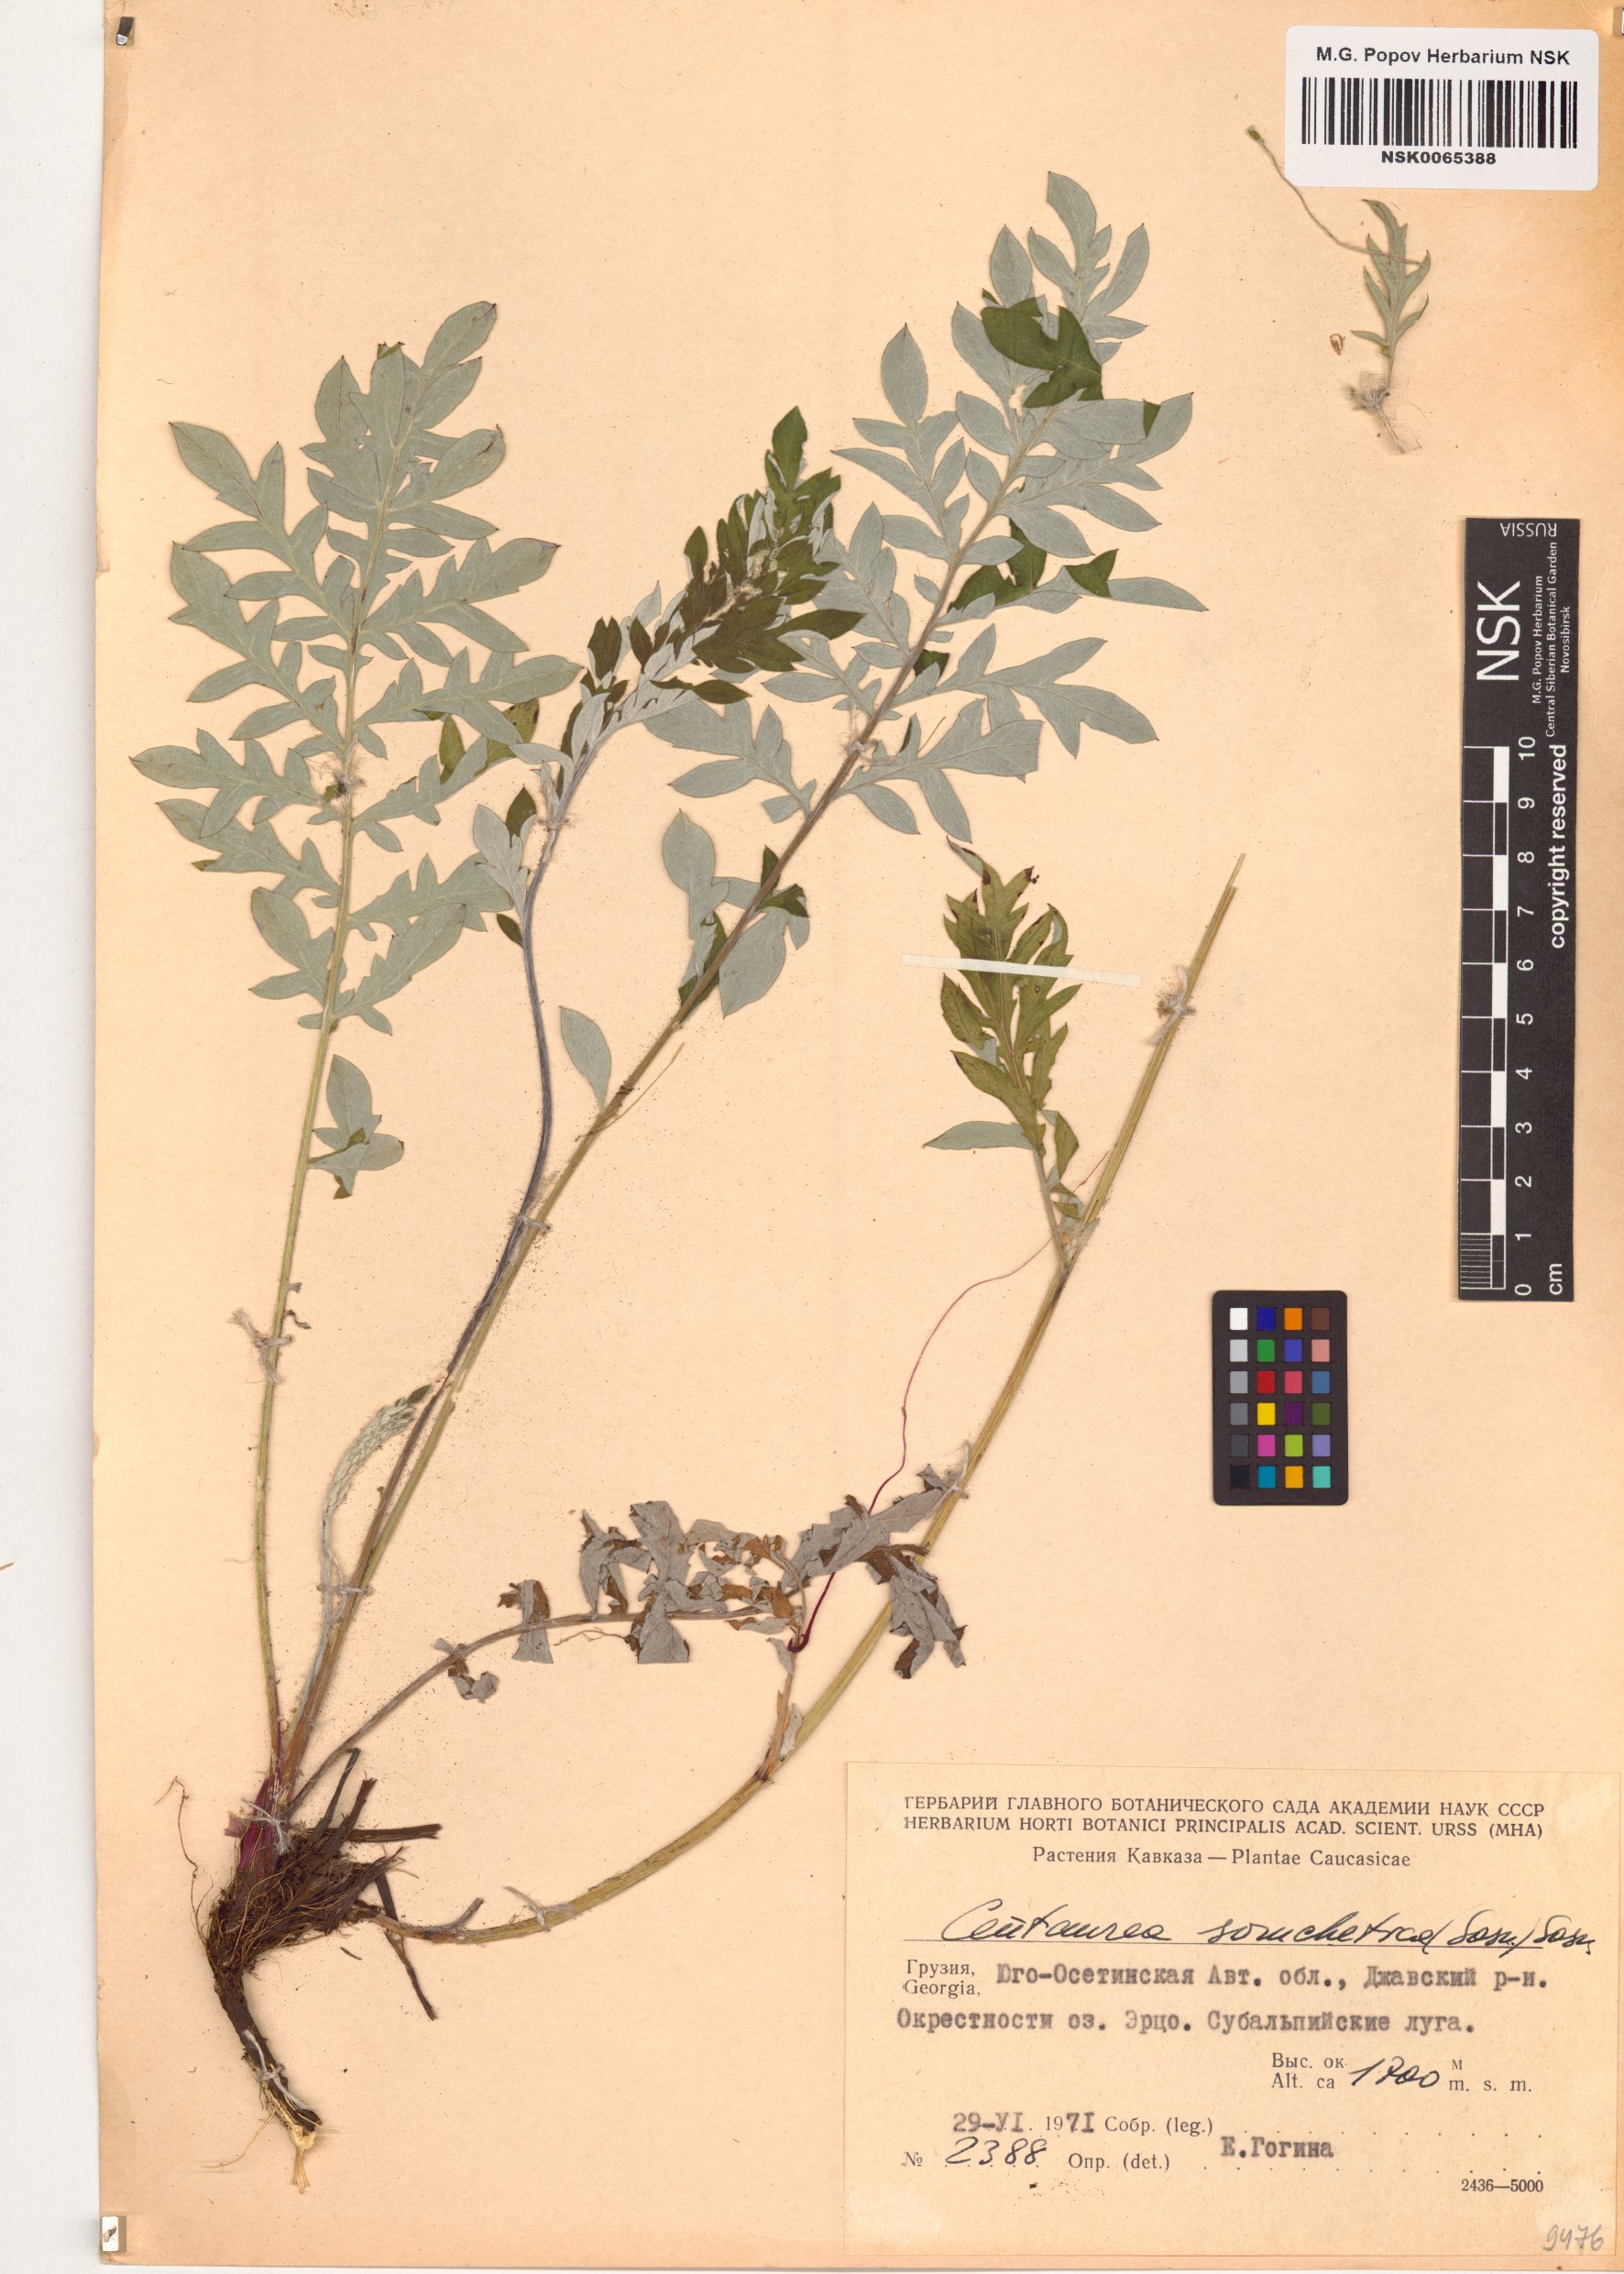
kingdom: Plantae
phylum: Tracheophyta
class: Magnoliopsida
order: Asterales
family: Asteraceae
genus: Psephellus
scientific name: Psephellus somcheticus
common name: Armenian psephellus
